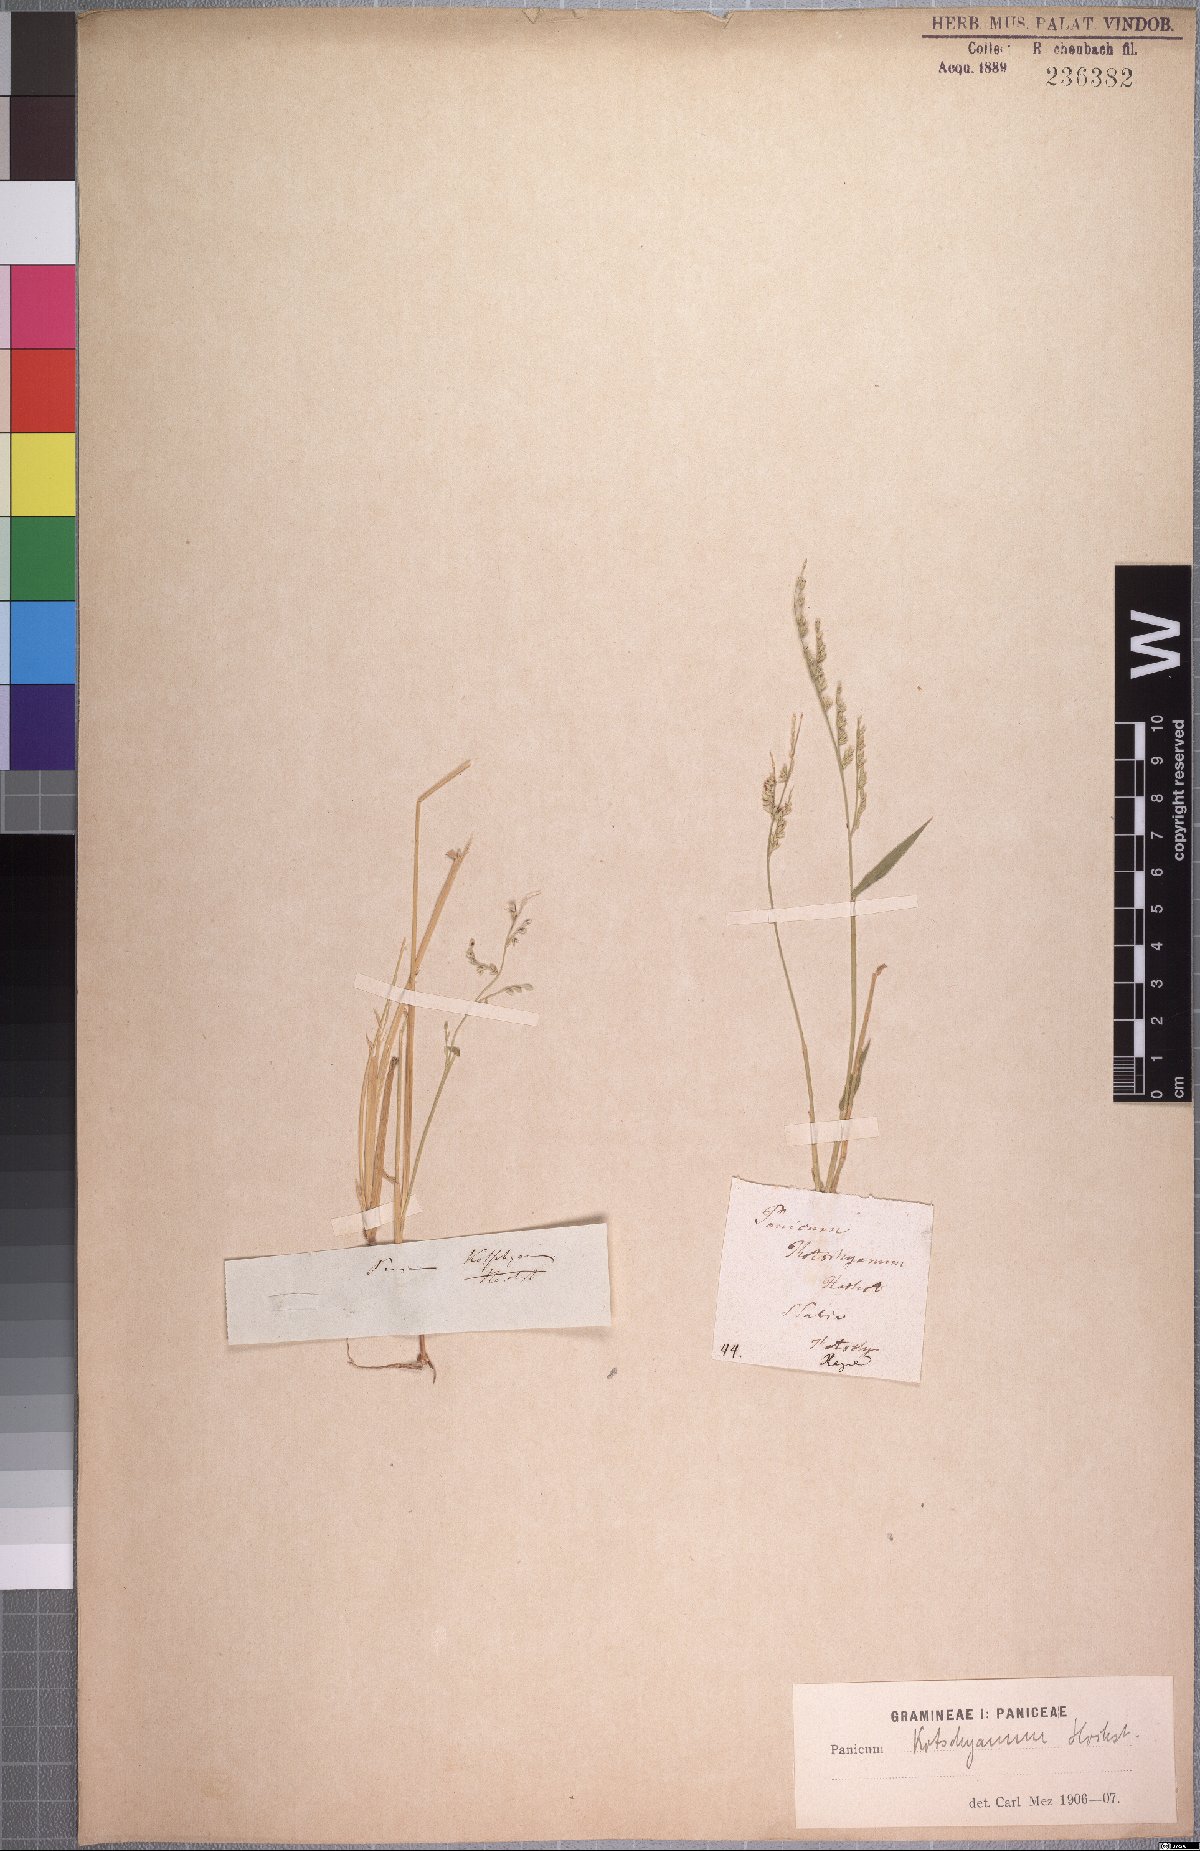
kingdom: Plantae
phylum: Tracheophyta
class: Liliopsida
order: Poales
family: Poaceae
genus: Urochloa
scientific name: Urochloa comata
